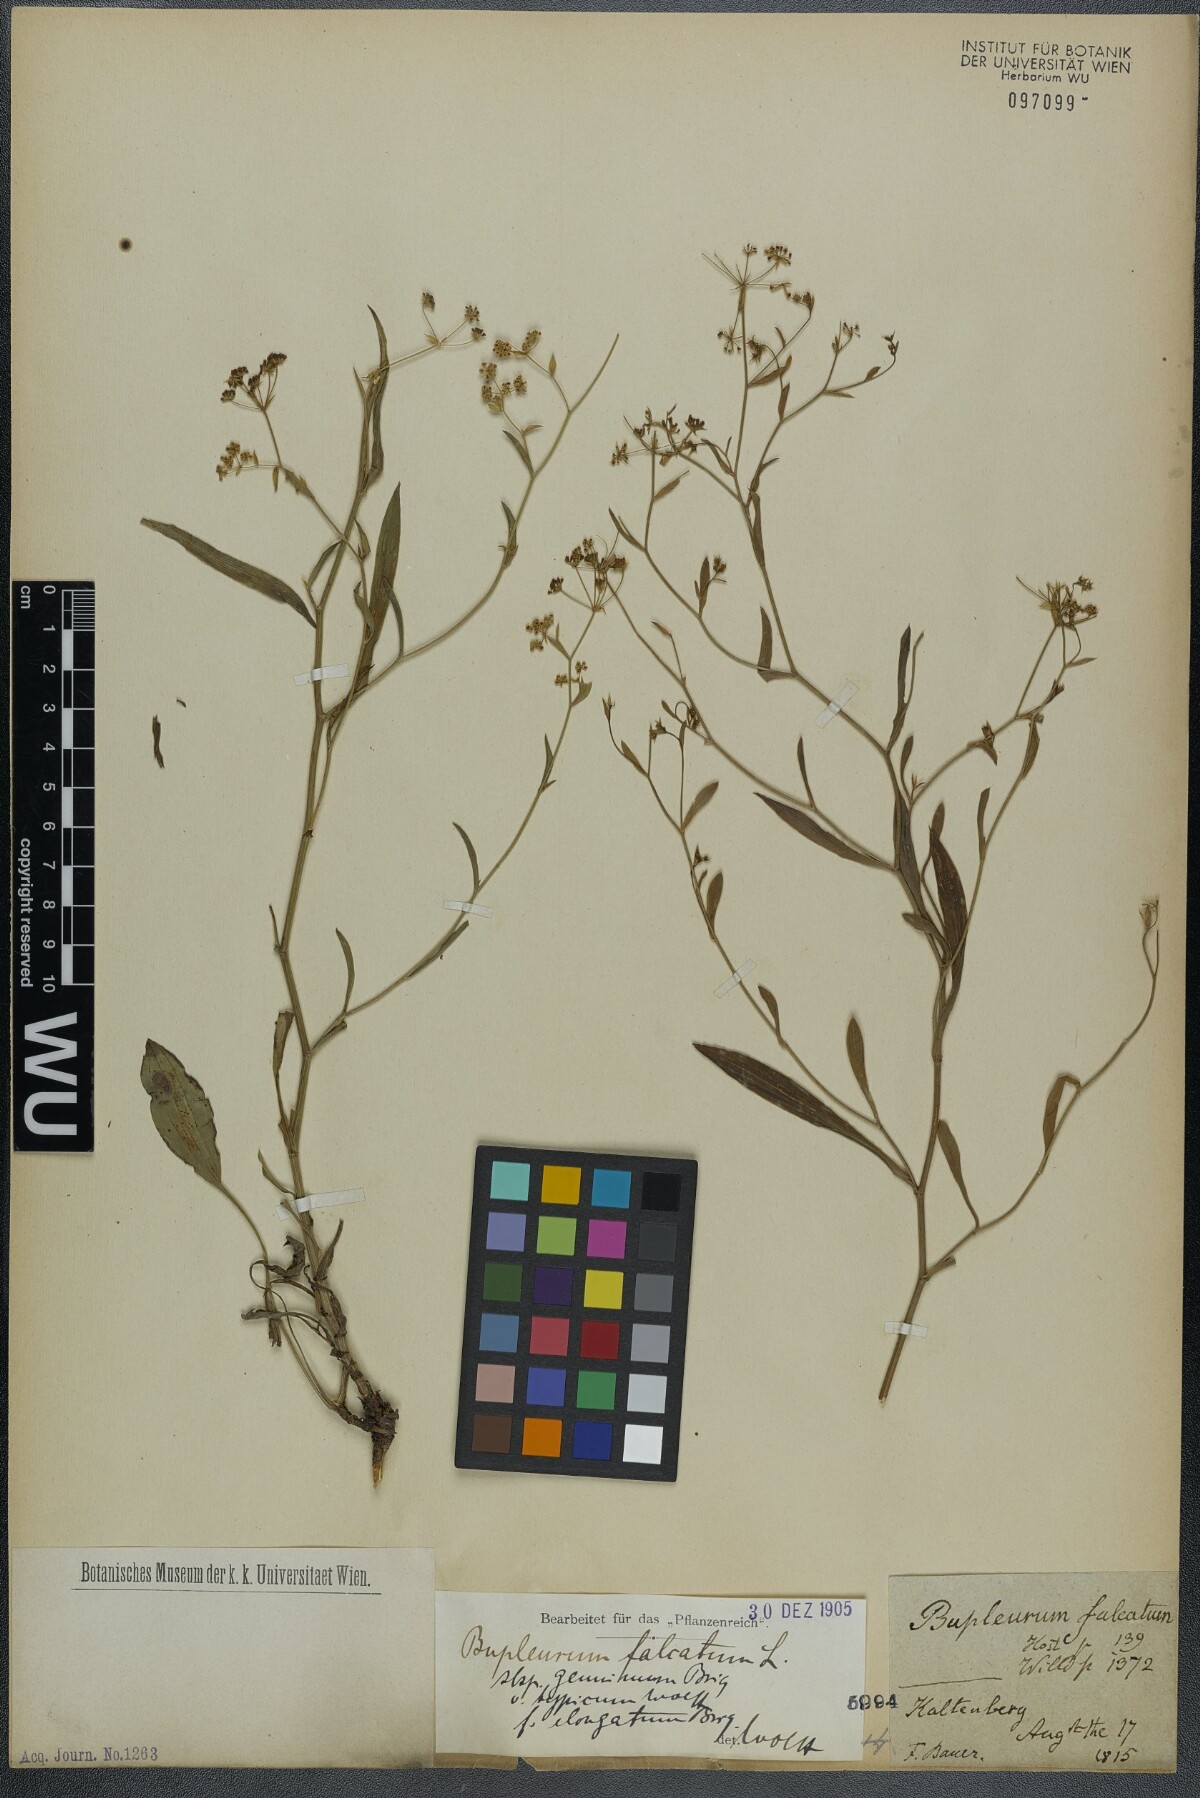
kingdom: Plantae
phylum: Tracheophyta
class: Magnoliopsida
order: Apiales
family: Apiaceae
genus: Bupleurum
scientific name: Bupleurum falcatum
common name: Sickle-leaved hare's-ear
